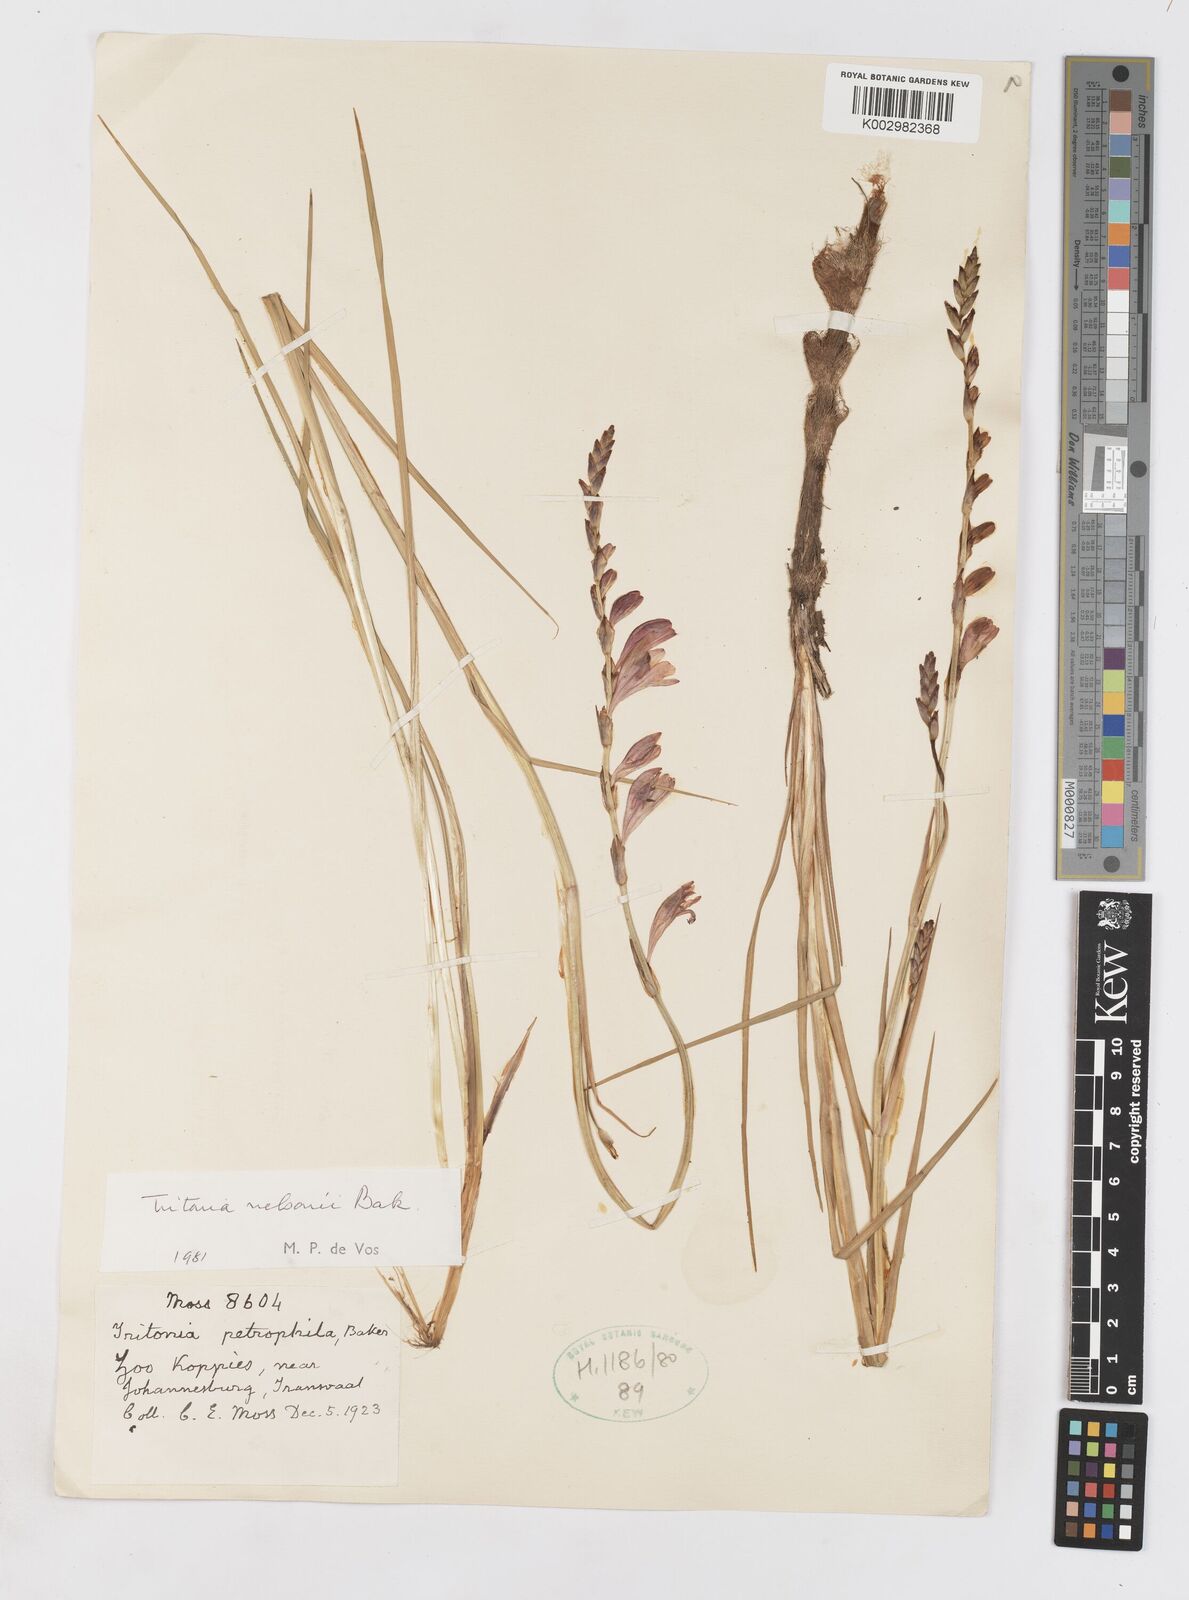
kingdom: Plantae
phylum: Tracheophyta
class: Liliopsida
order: Asparagales
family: Iridaceae
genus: Tritonia
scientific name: Tritonia nelsonii
